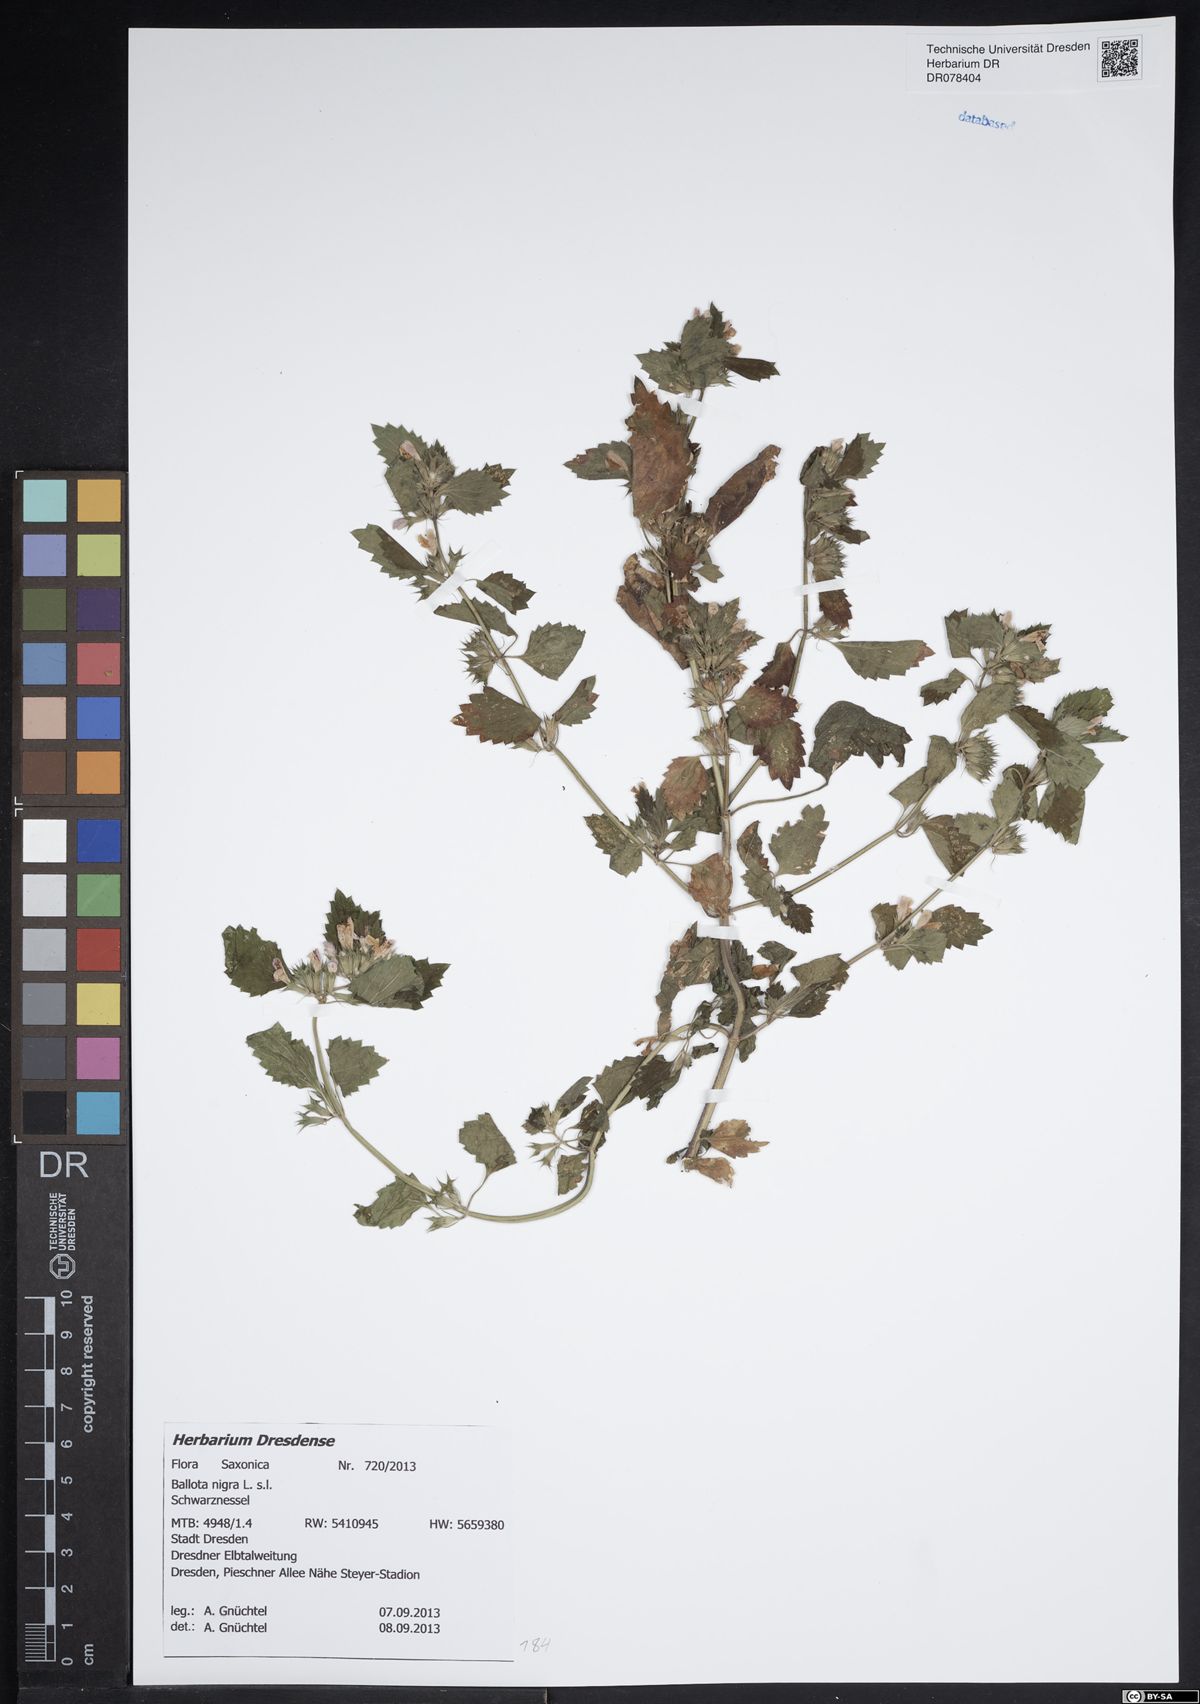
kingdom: Plantae
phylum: Tracheophyta
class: Magnoliopsida
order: Lamiales
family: Lamiaceae
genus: Ballota
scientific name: Ballota nigra
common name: Black horehound
